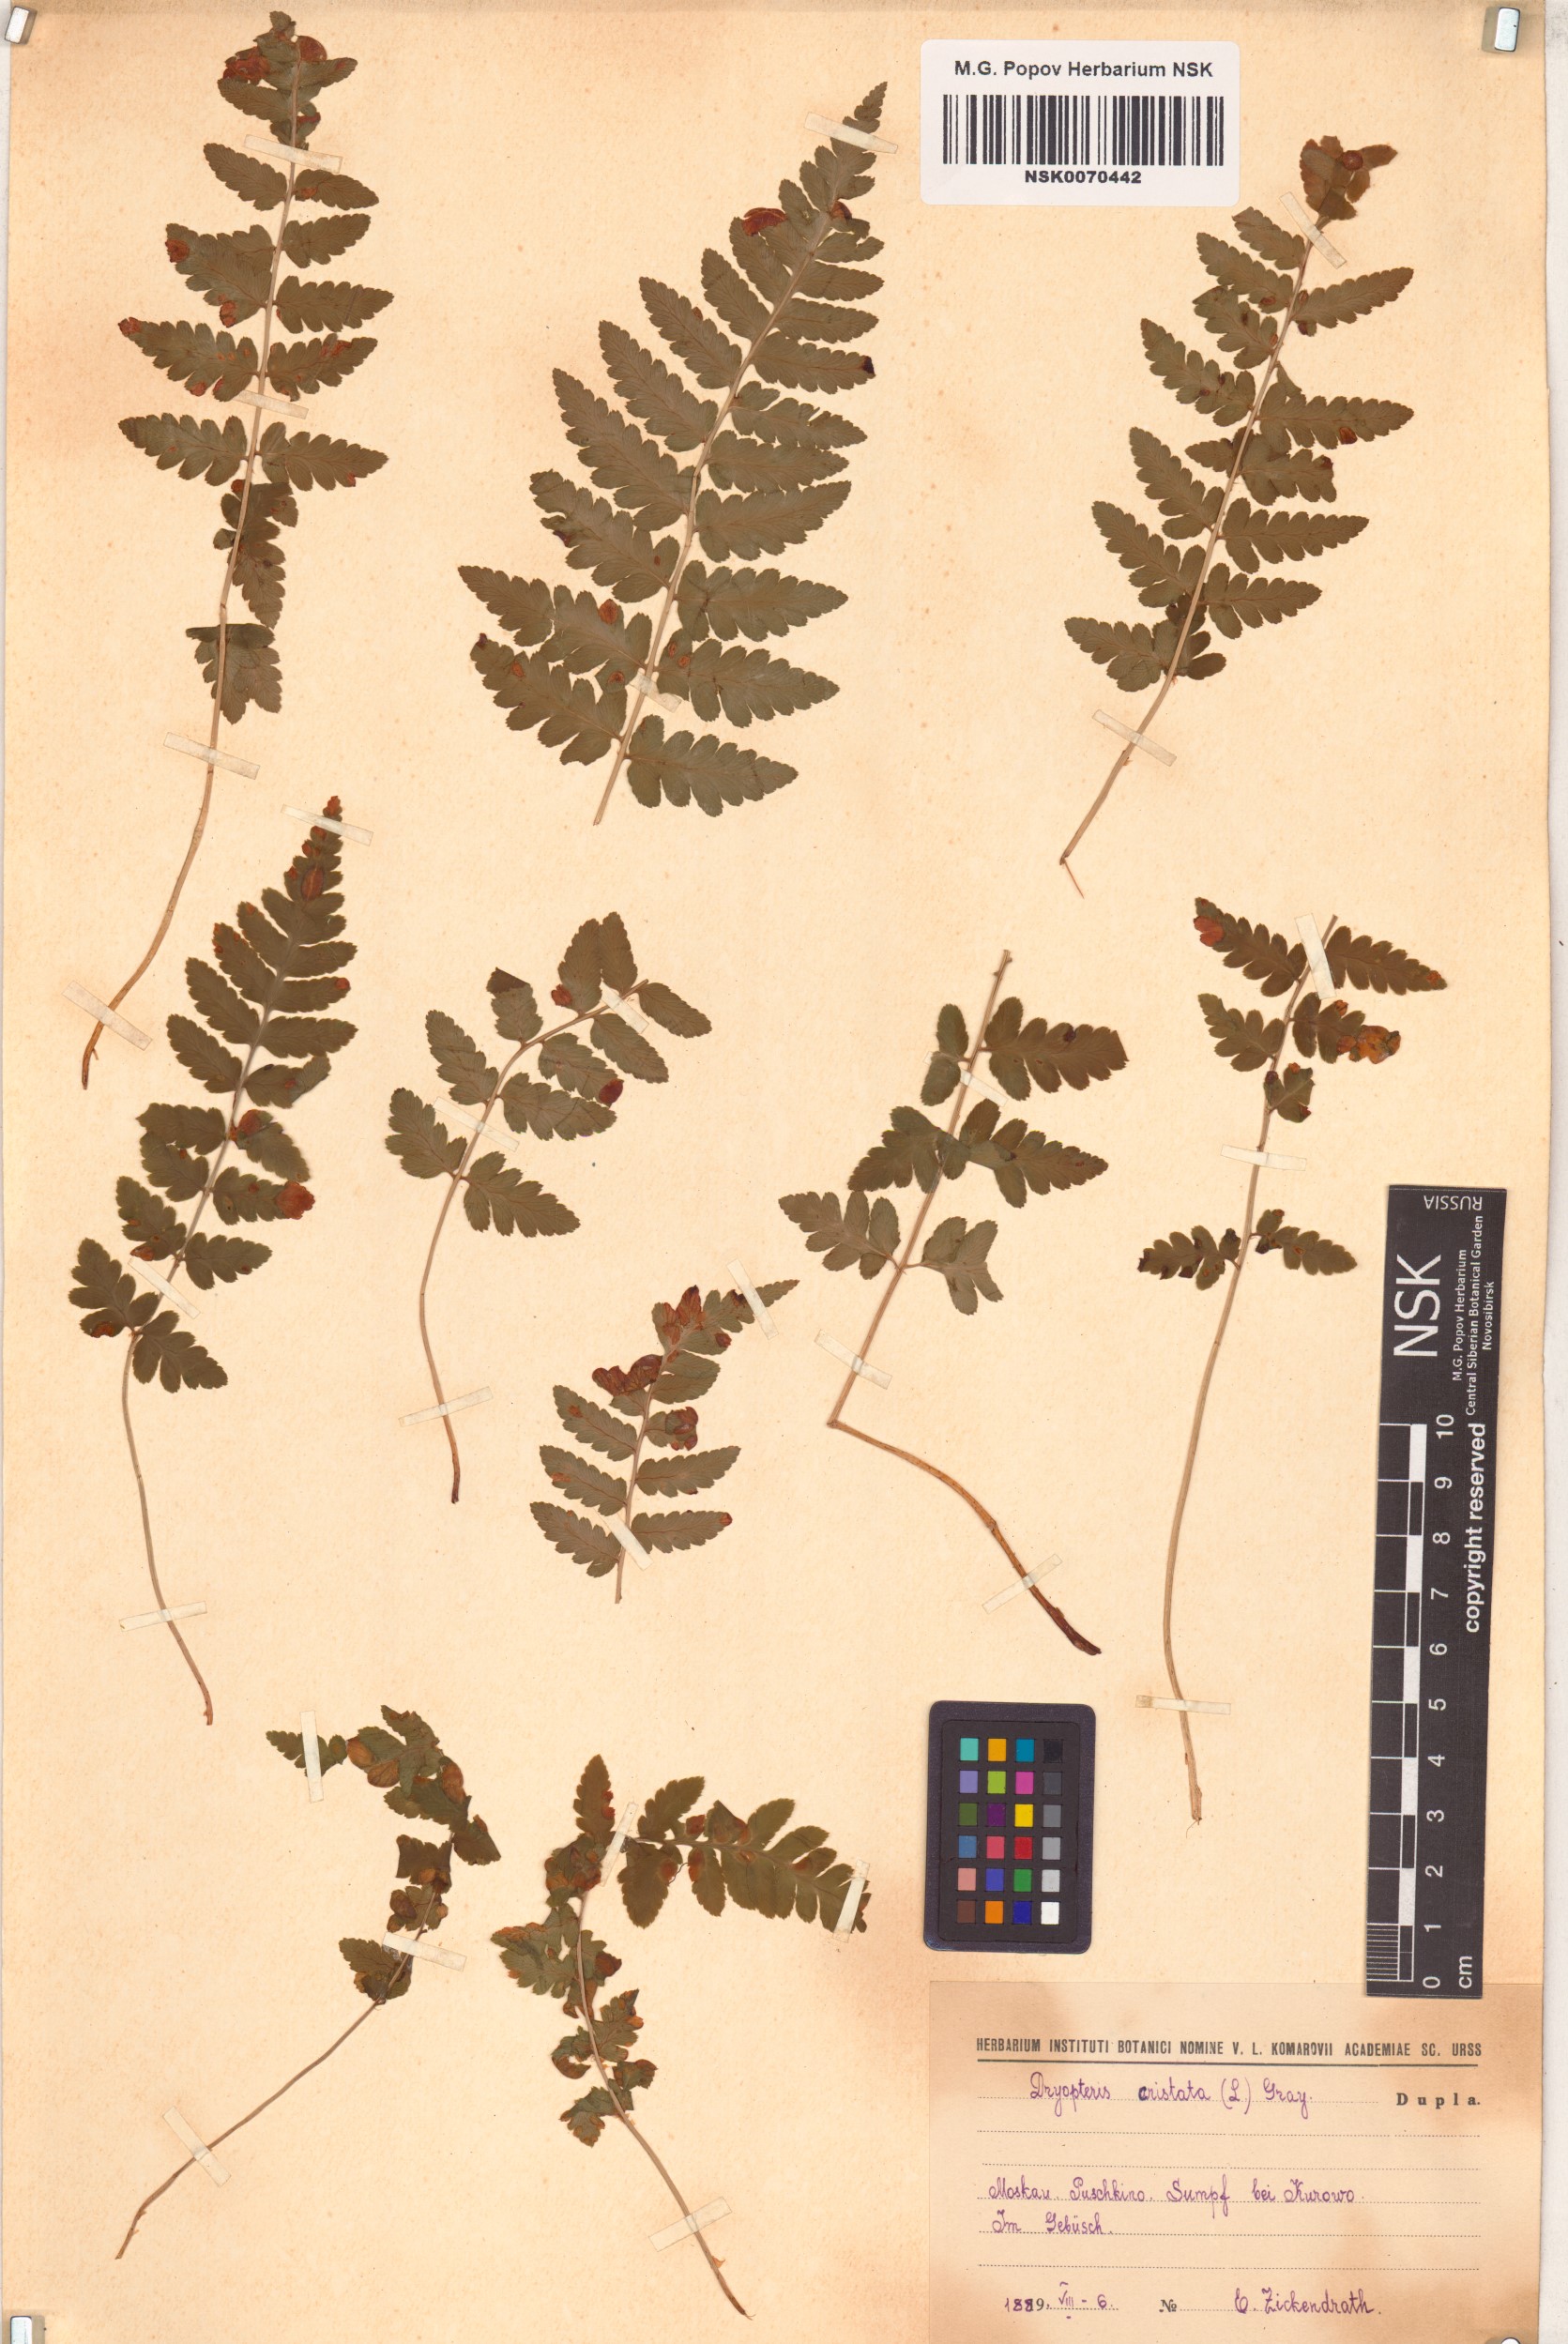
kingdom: Plantae
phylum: Tracheophyta
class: Polypodiopsida
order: Polypodiales
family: Dryopteridaceae
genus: Dryopteris
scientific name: Dryopteris cristata
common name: Crested wood fern
